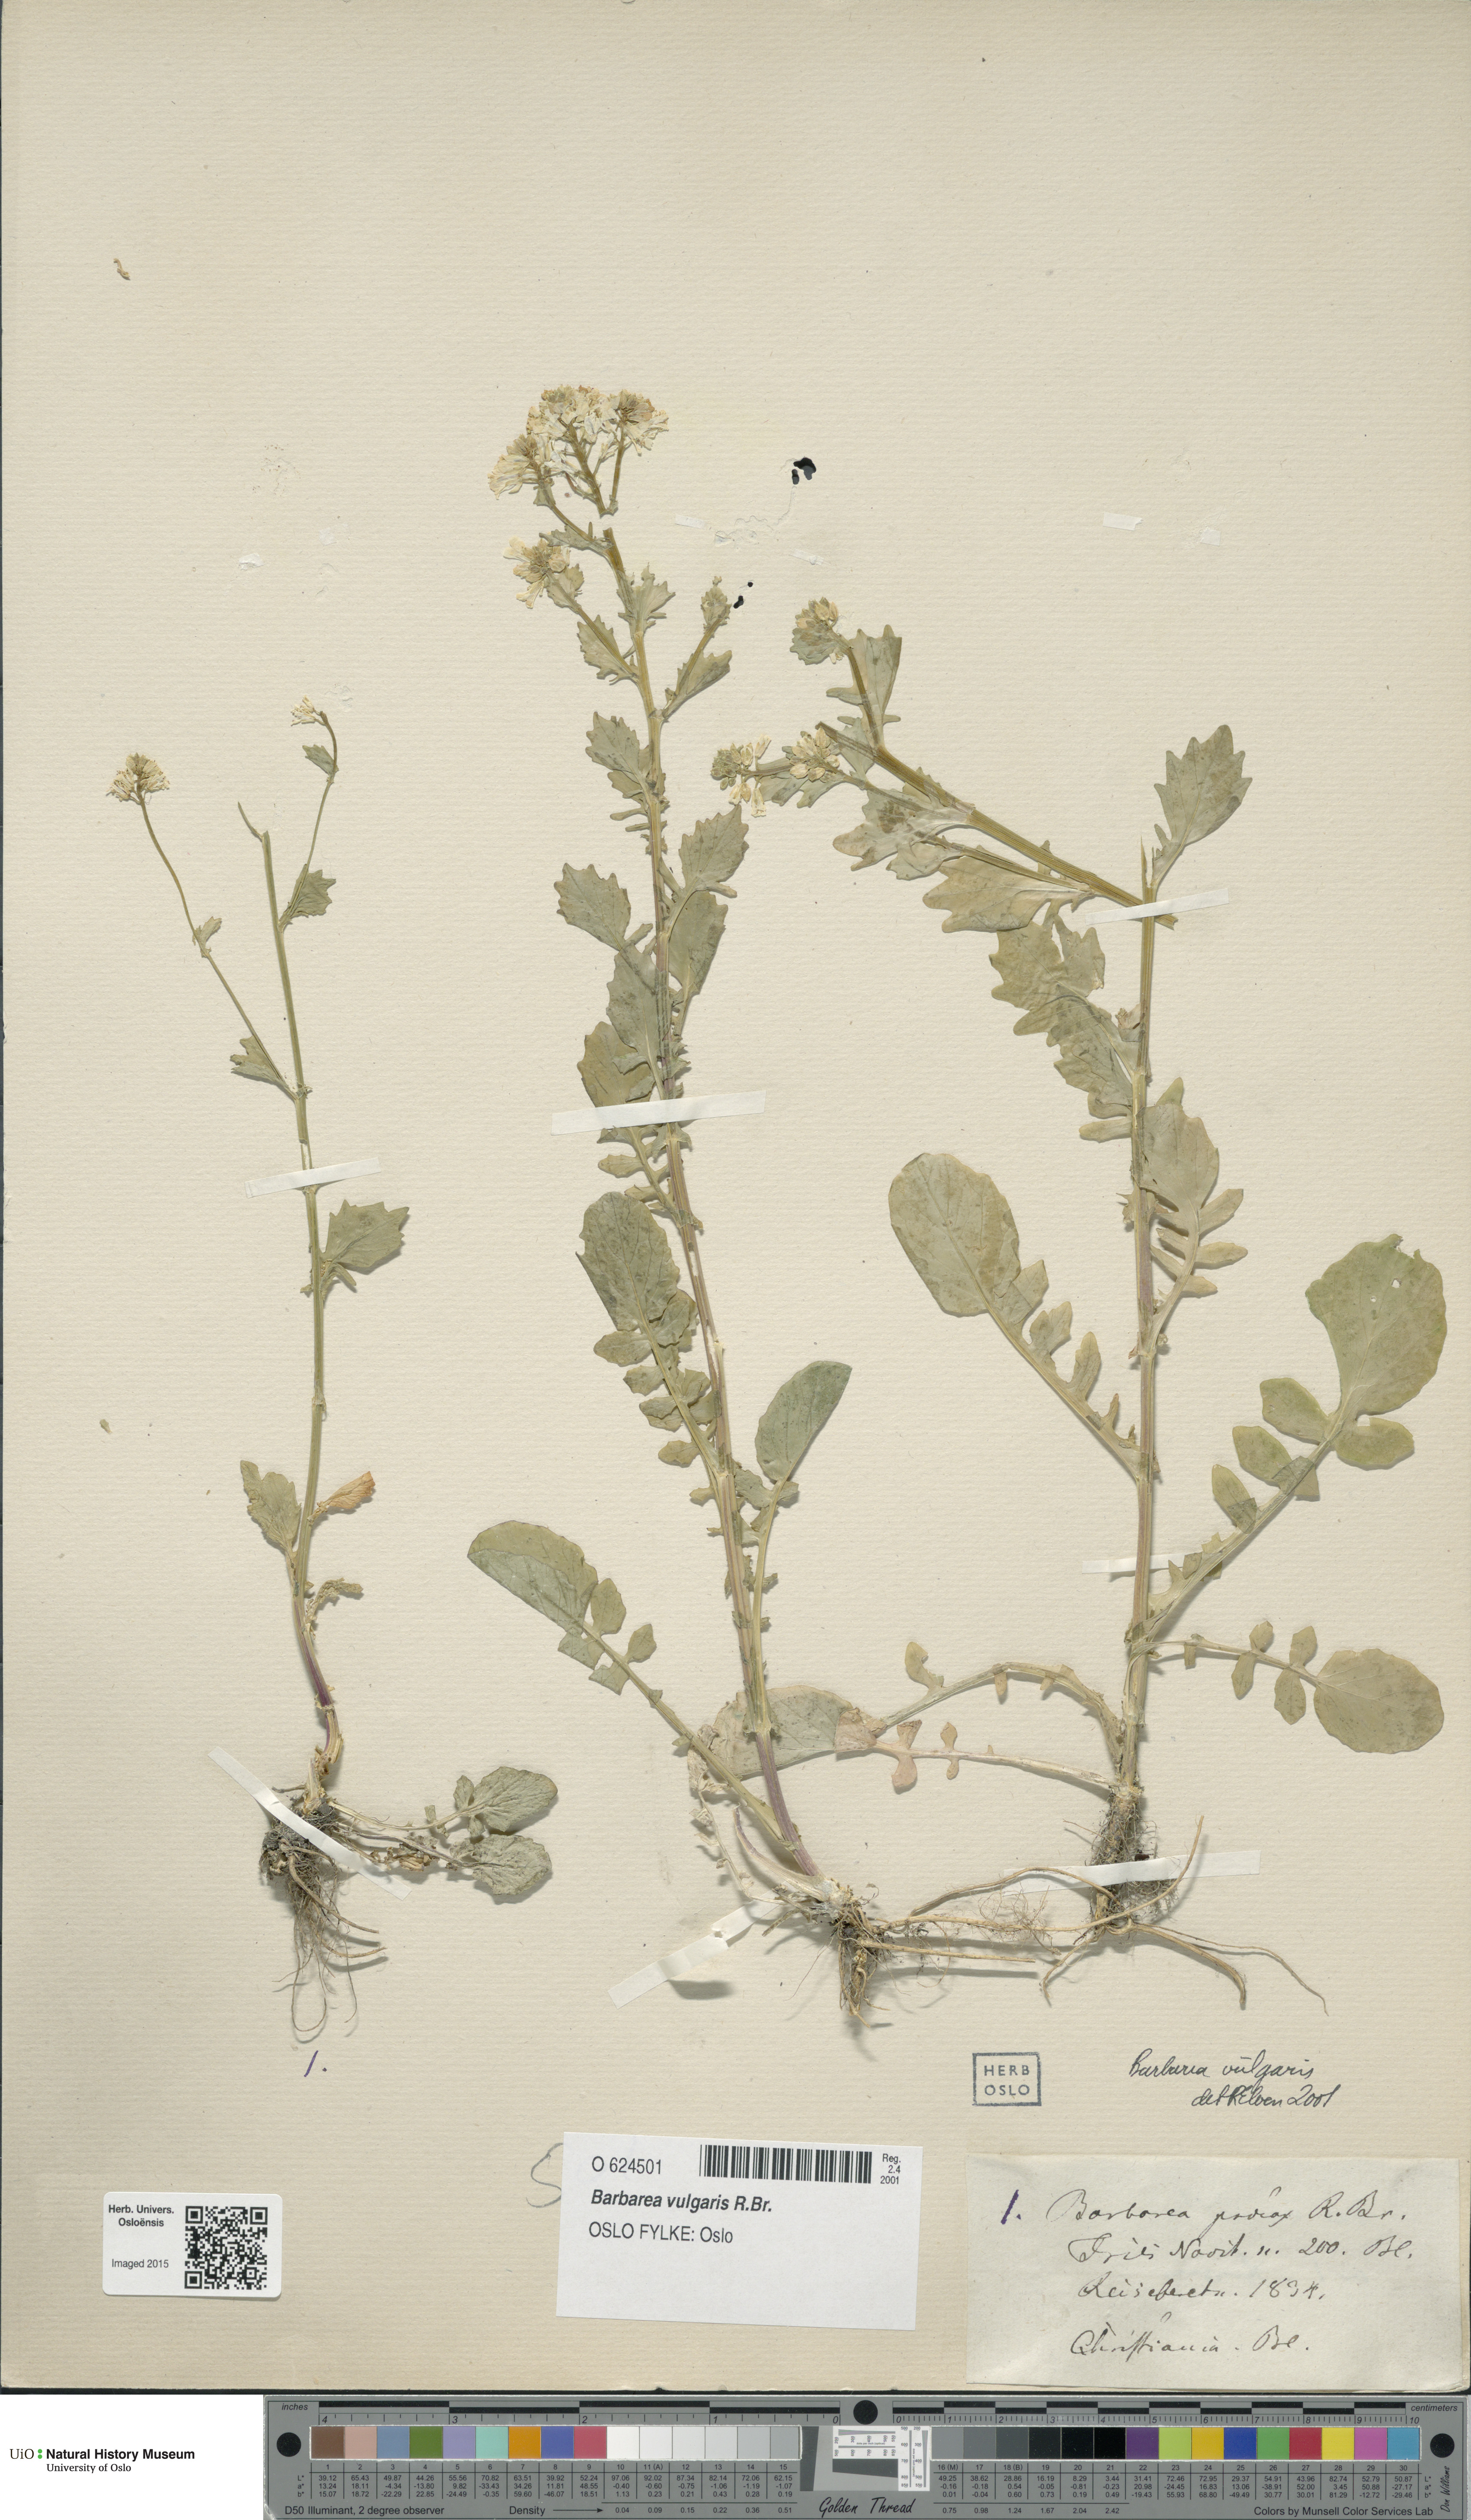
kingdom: Plantae
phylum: Tracheophyta
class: Magnoliopsida
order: Brassicales
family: Brassicaceae
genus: Barbarea
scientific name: Barbarea vulgaris
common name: Cressy-greens
